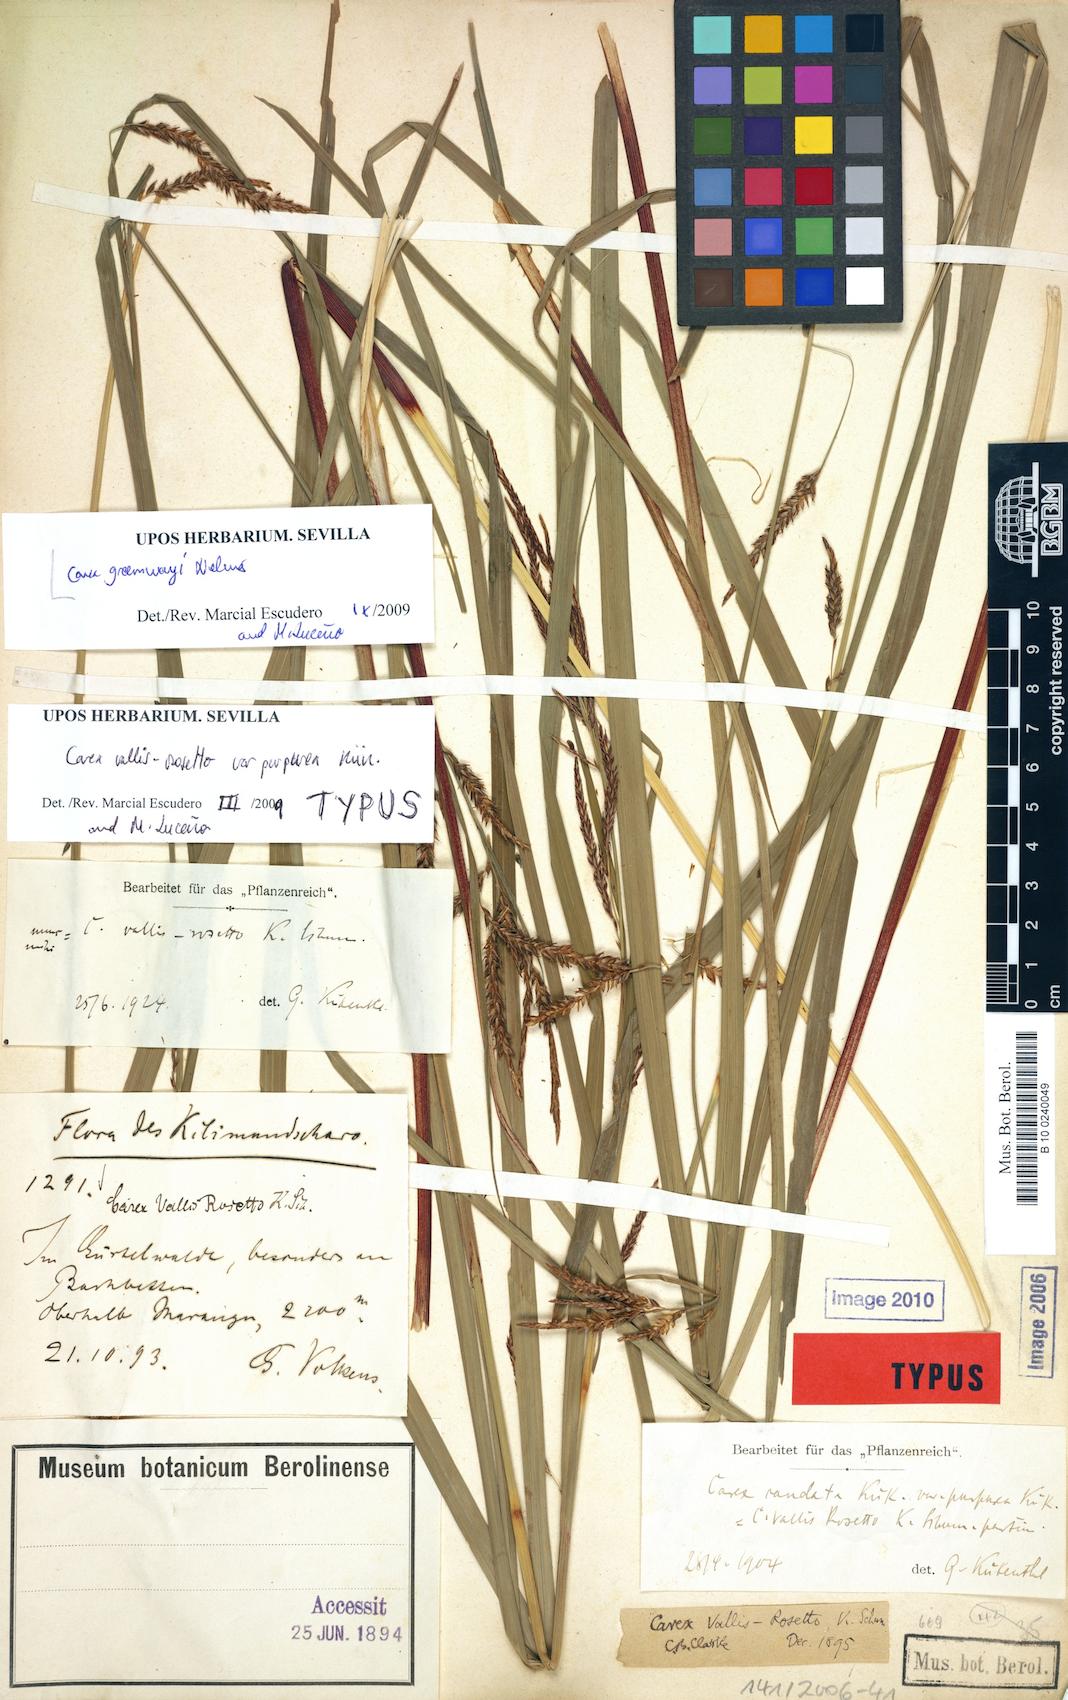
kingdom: Plantae
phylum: Tracheophyta
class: Liliopsida
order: Poales
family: Cyperaceae
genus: Carex
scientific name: Carex greenwayi
